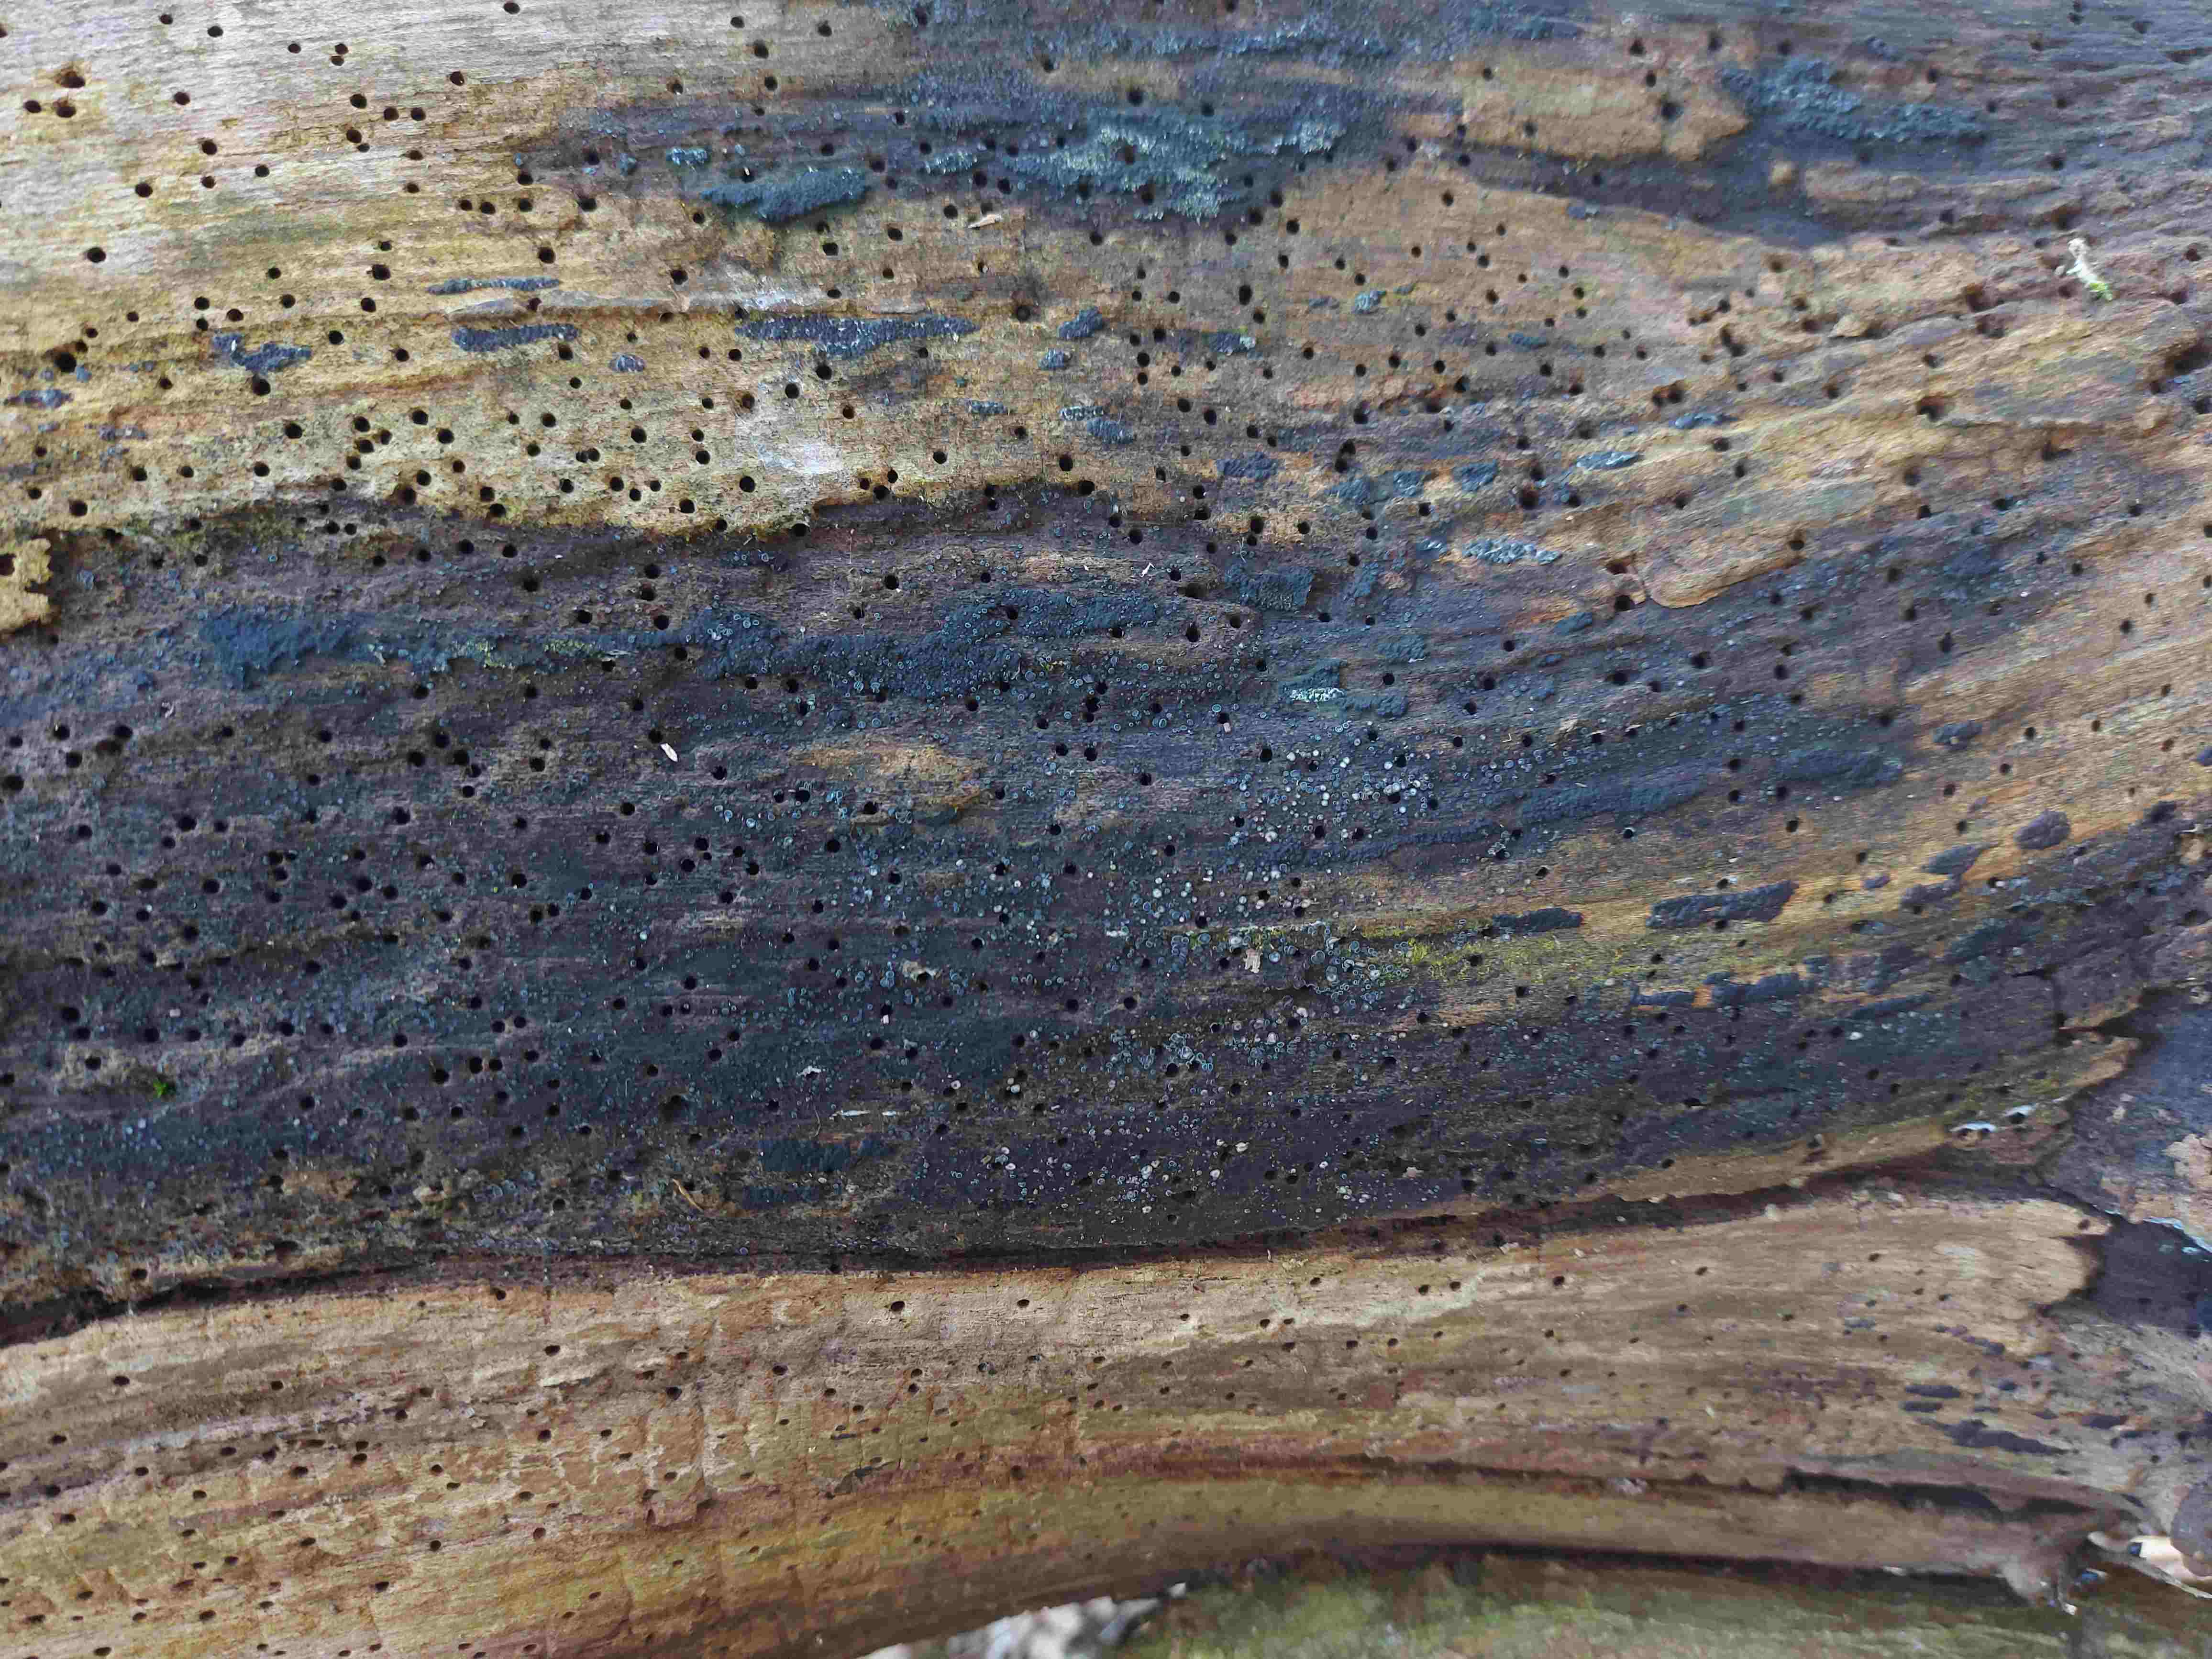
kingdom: Fungi
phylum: Ascomycota
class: Leotiomycetes
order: Helotiales
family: Mollisiaceae
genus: Mollisia
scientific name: Mollisia
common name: gråskive
